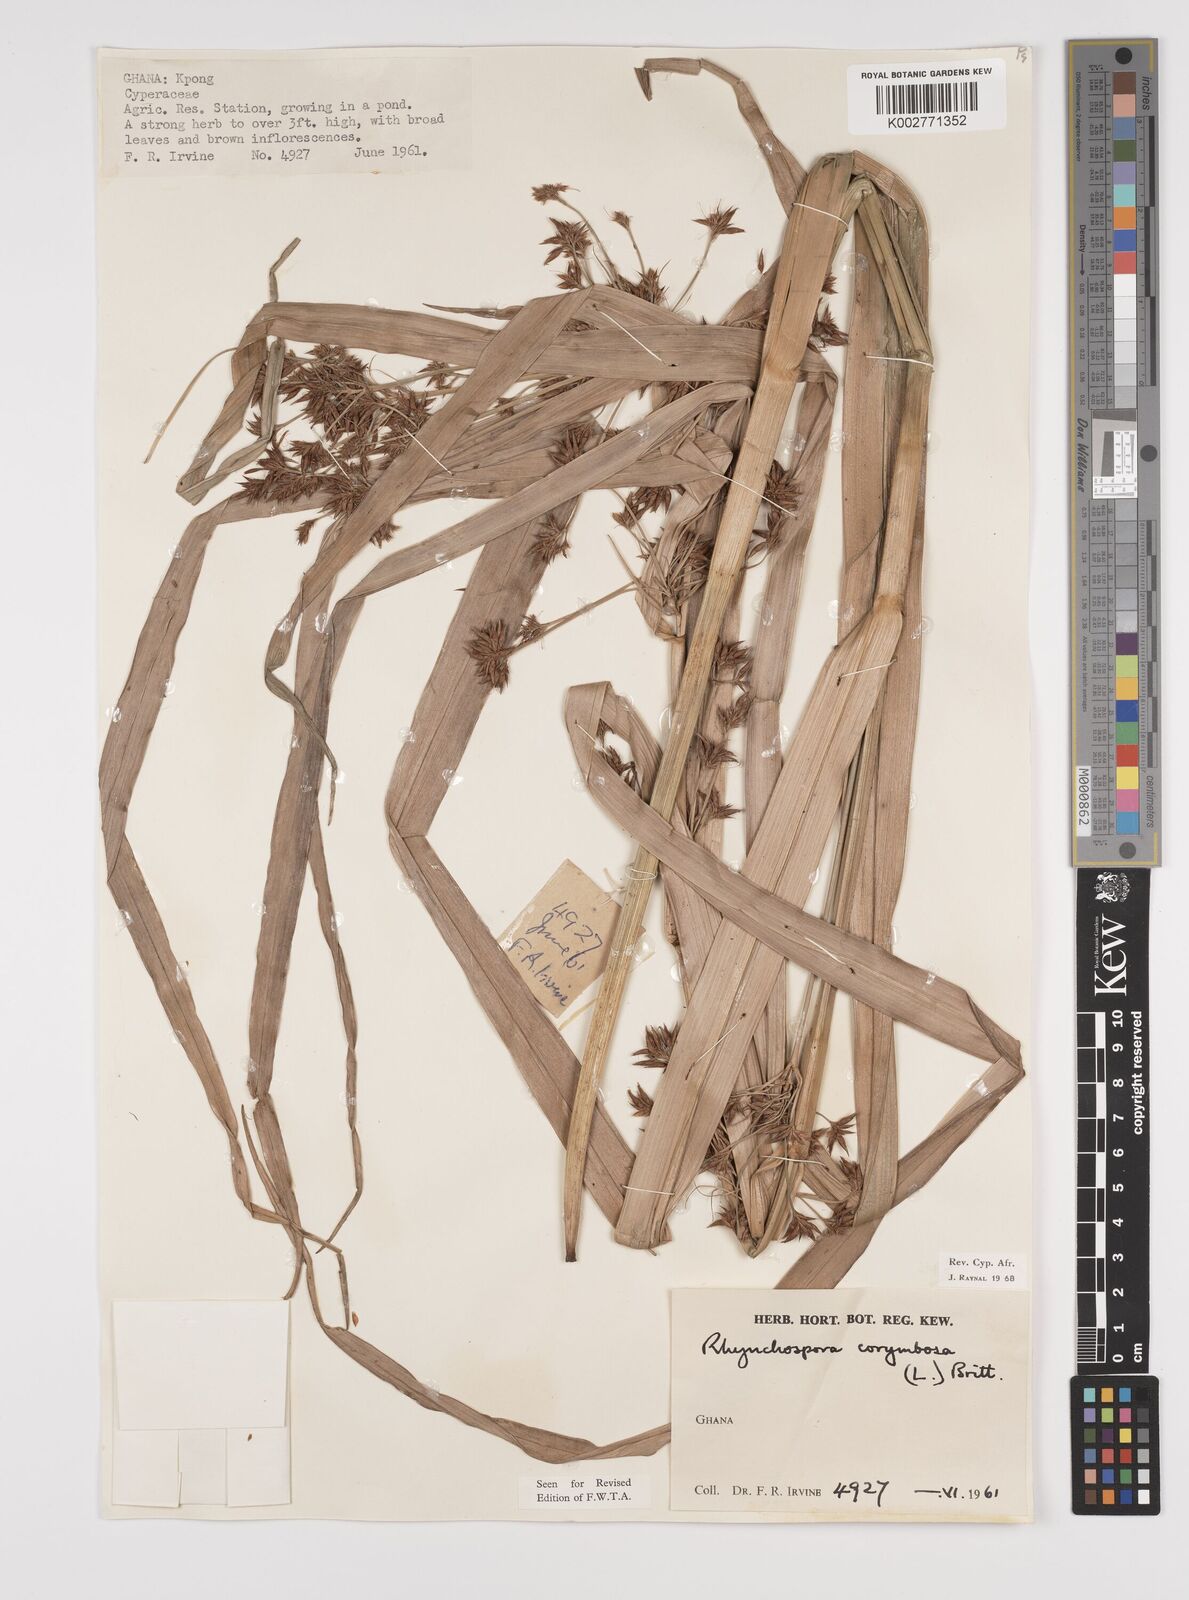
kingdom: Plantae
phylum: Tracheophyta
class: Liliopsida
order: Poales
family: Cyperaceae
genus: Rhynchospora
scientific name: Rhynchospora corymbosa
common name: Golden beak sedge
